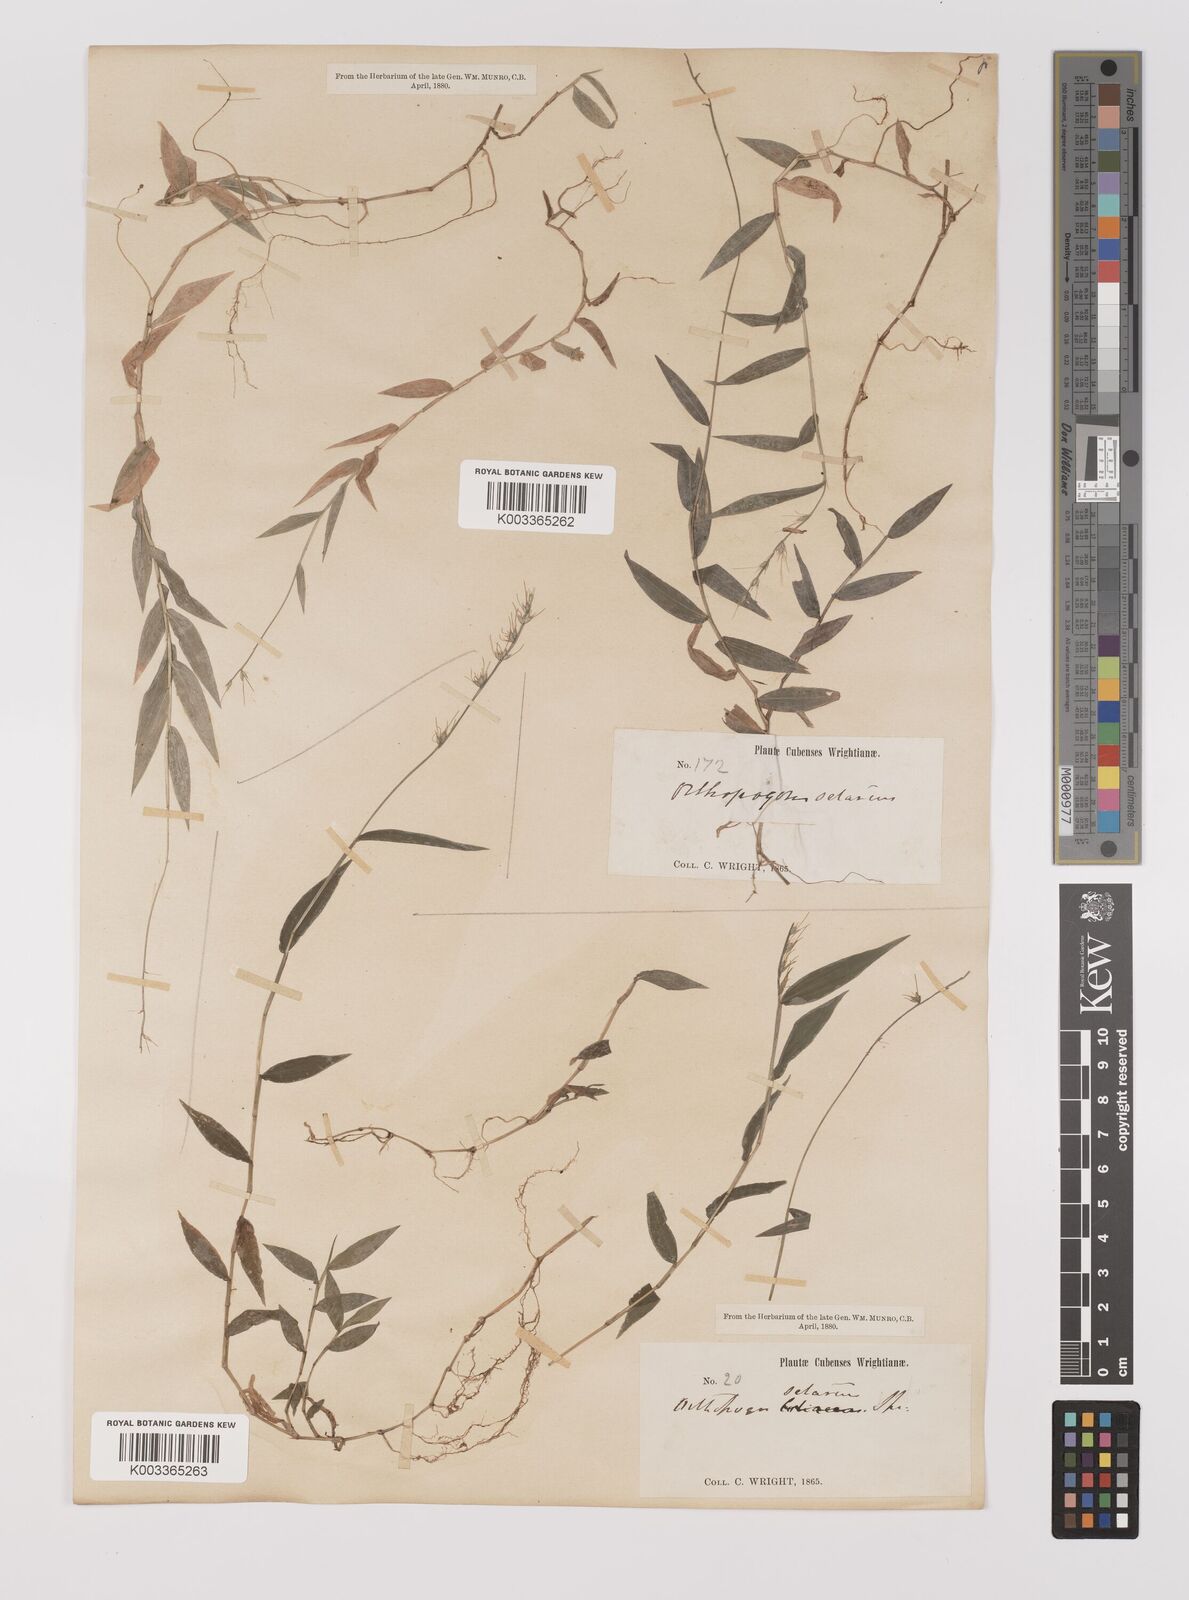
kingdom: Plantae
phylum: Tracheophyta
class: Liliopsida
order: Poales
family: Poaceae
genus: Oplismenus
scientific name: Oplismenus undulatifolius
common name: Wavyleaf basketgrass
